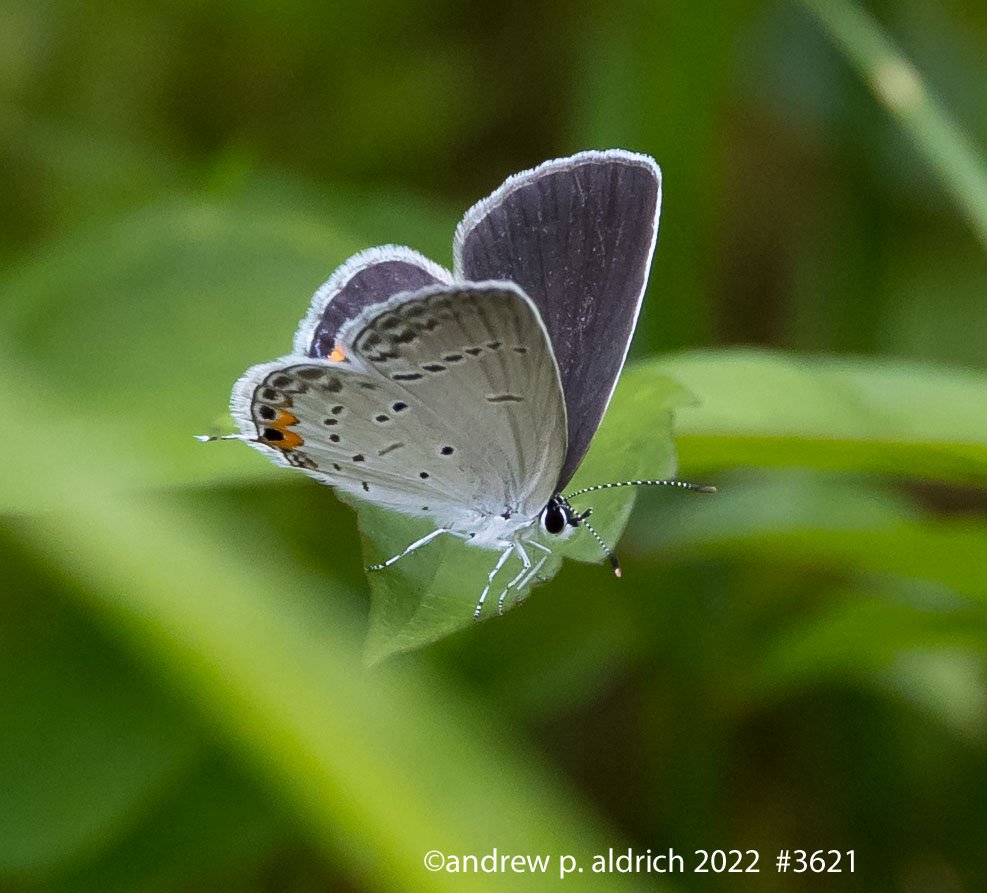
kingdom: Animalia
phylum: Arthropoda
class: Insecta
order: Lepidoptera
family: Lycaenidae
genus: Elkalyce
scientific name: Elkalyce comyntas
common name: Eastern Tailed-Blue
